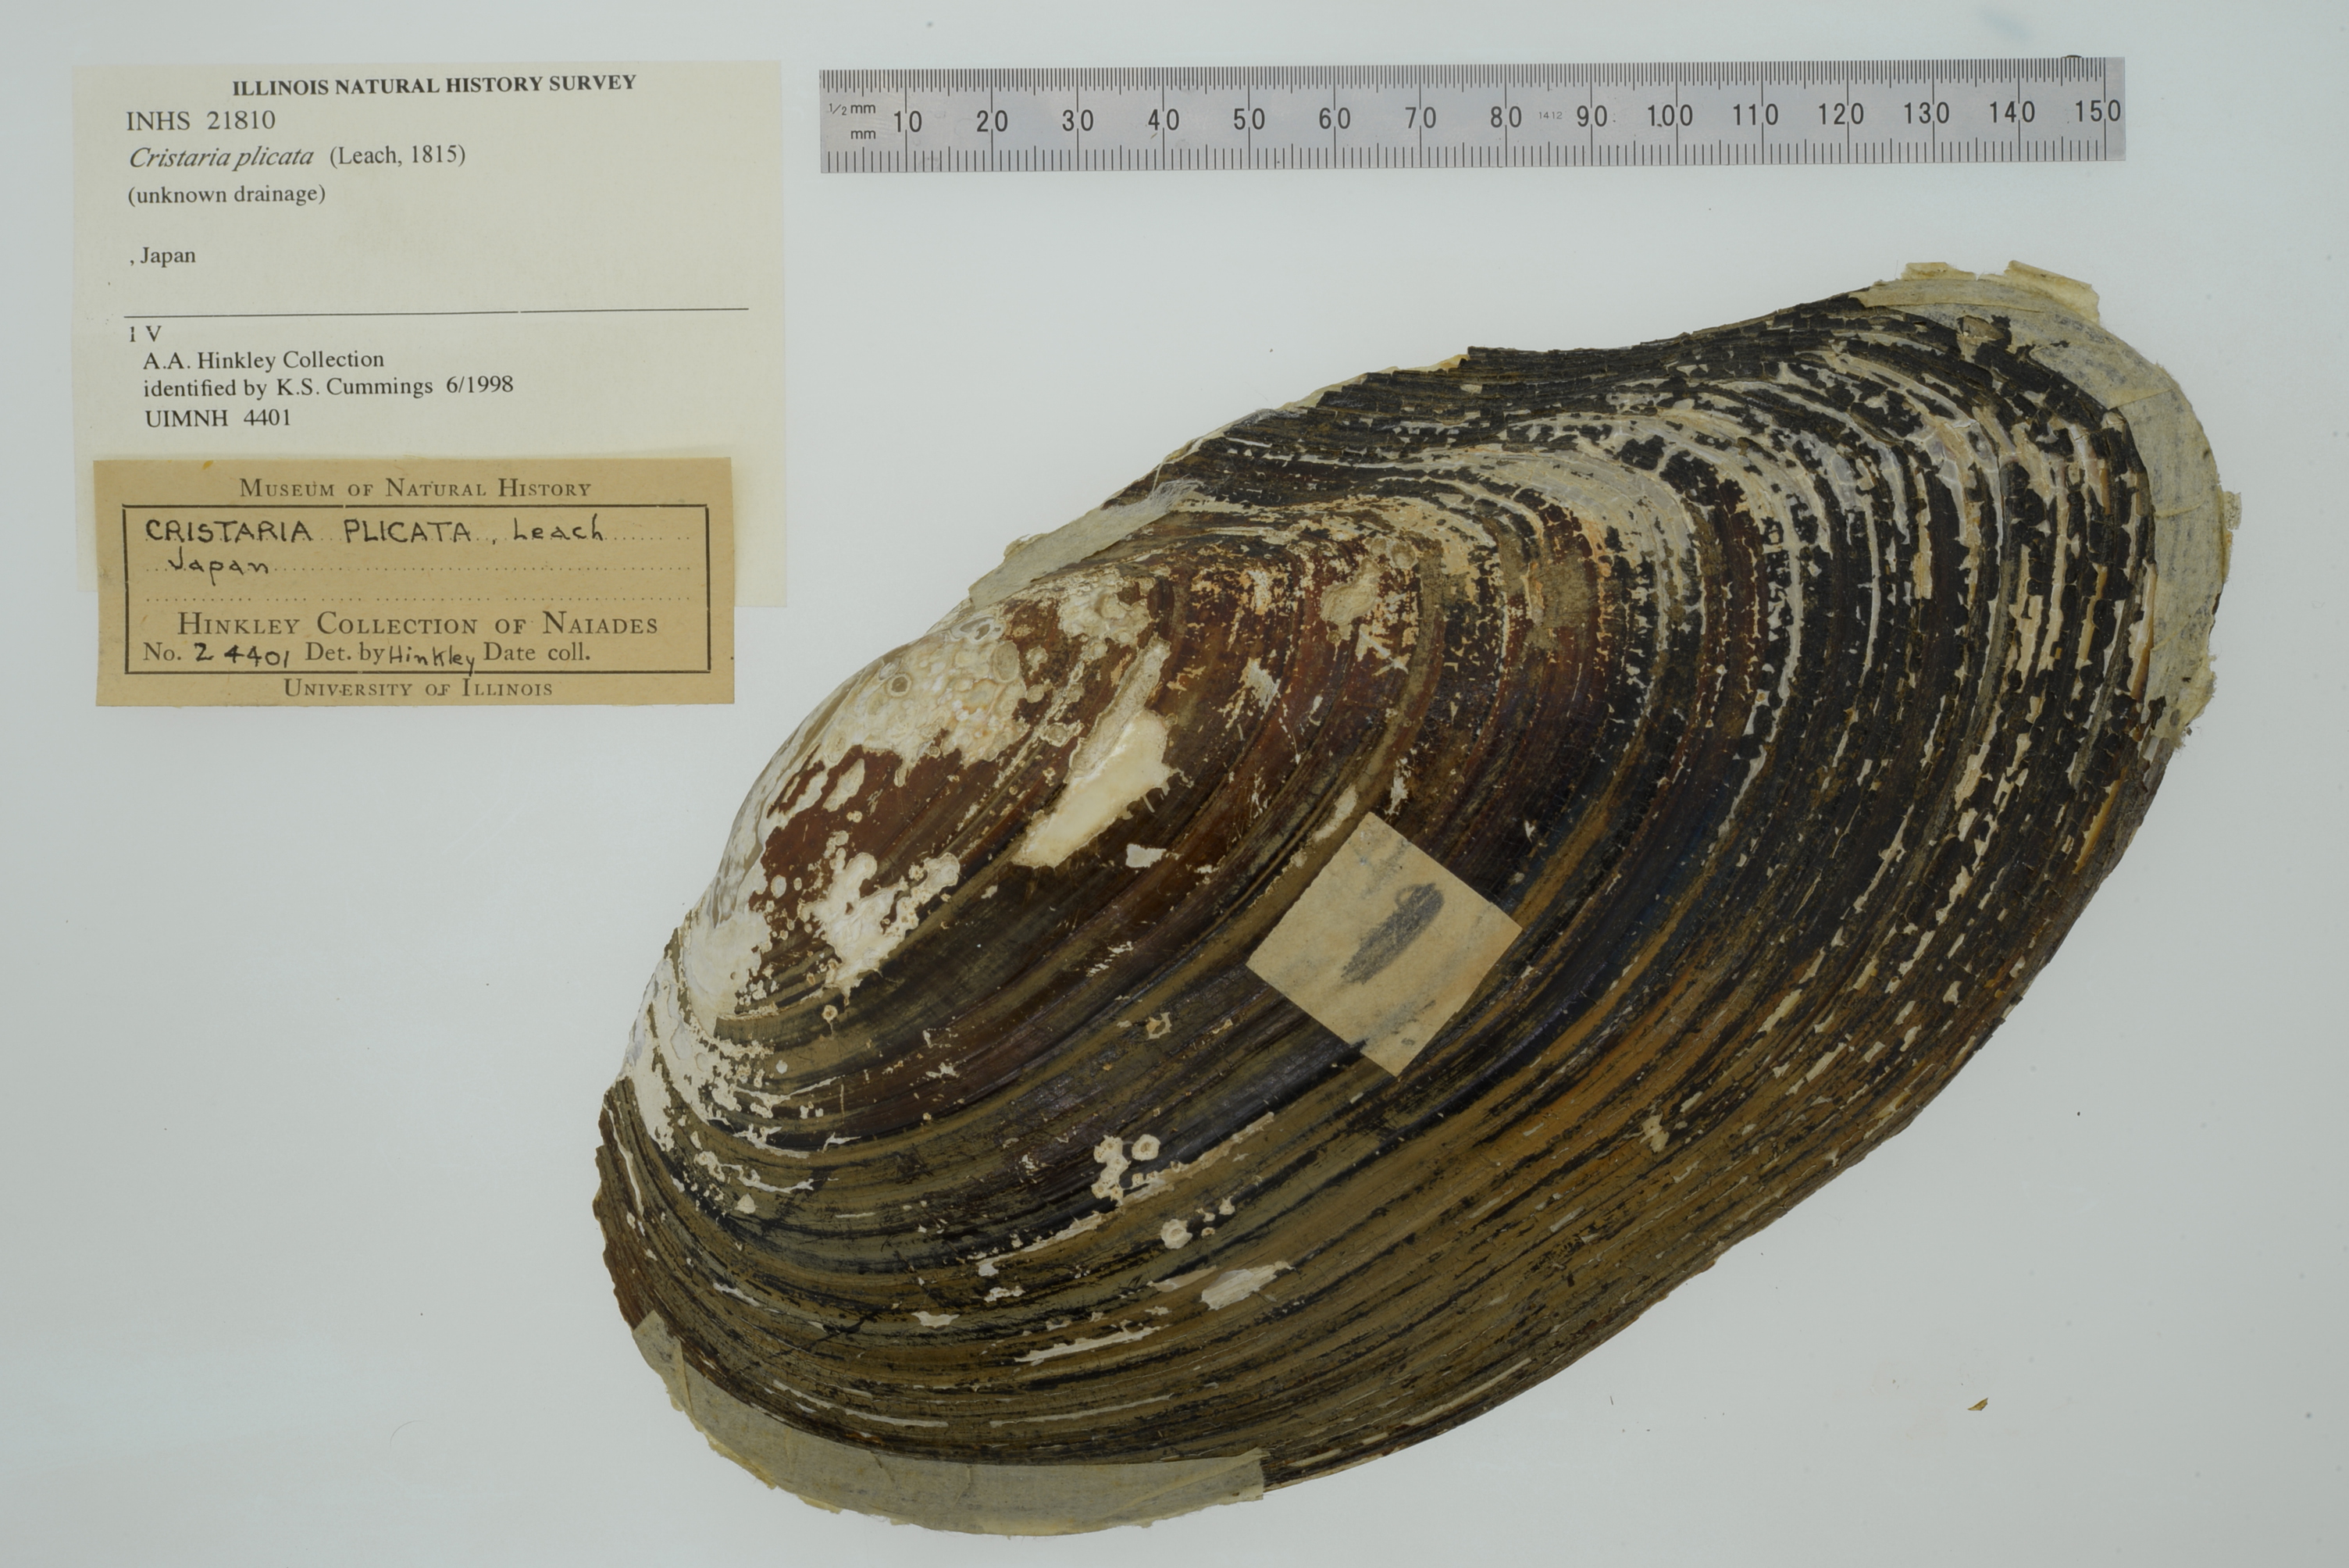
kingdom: Animalia
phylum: Mollusca
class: Bivalvia
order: Unionida
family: Unionidae
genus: Cristaria
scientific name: Cristaria plicata
